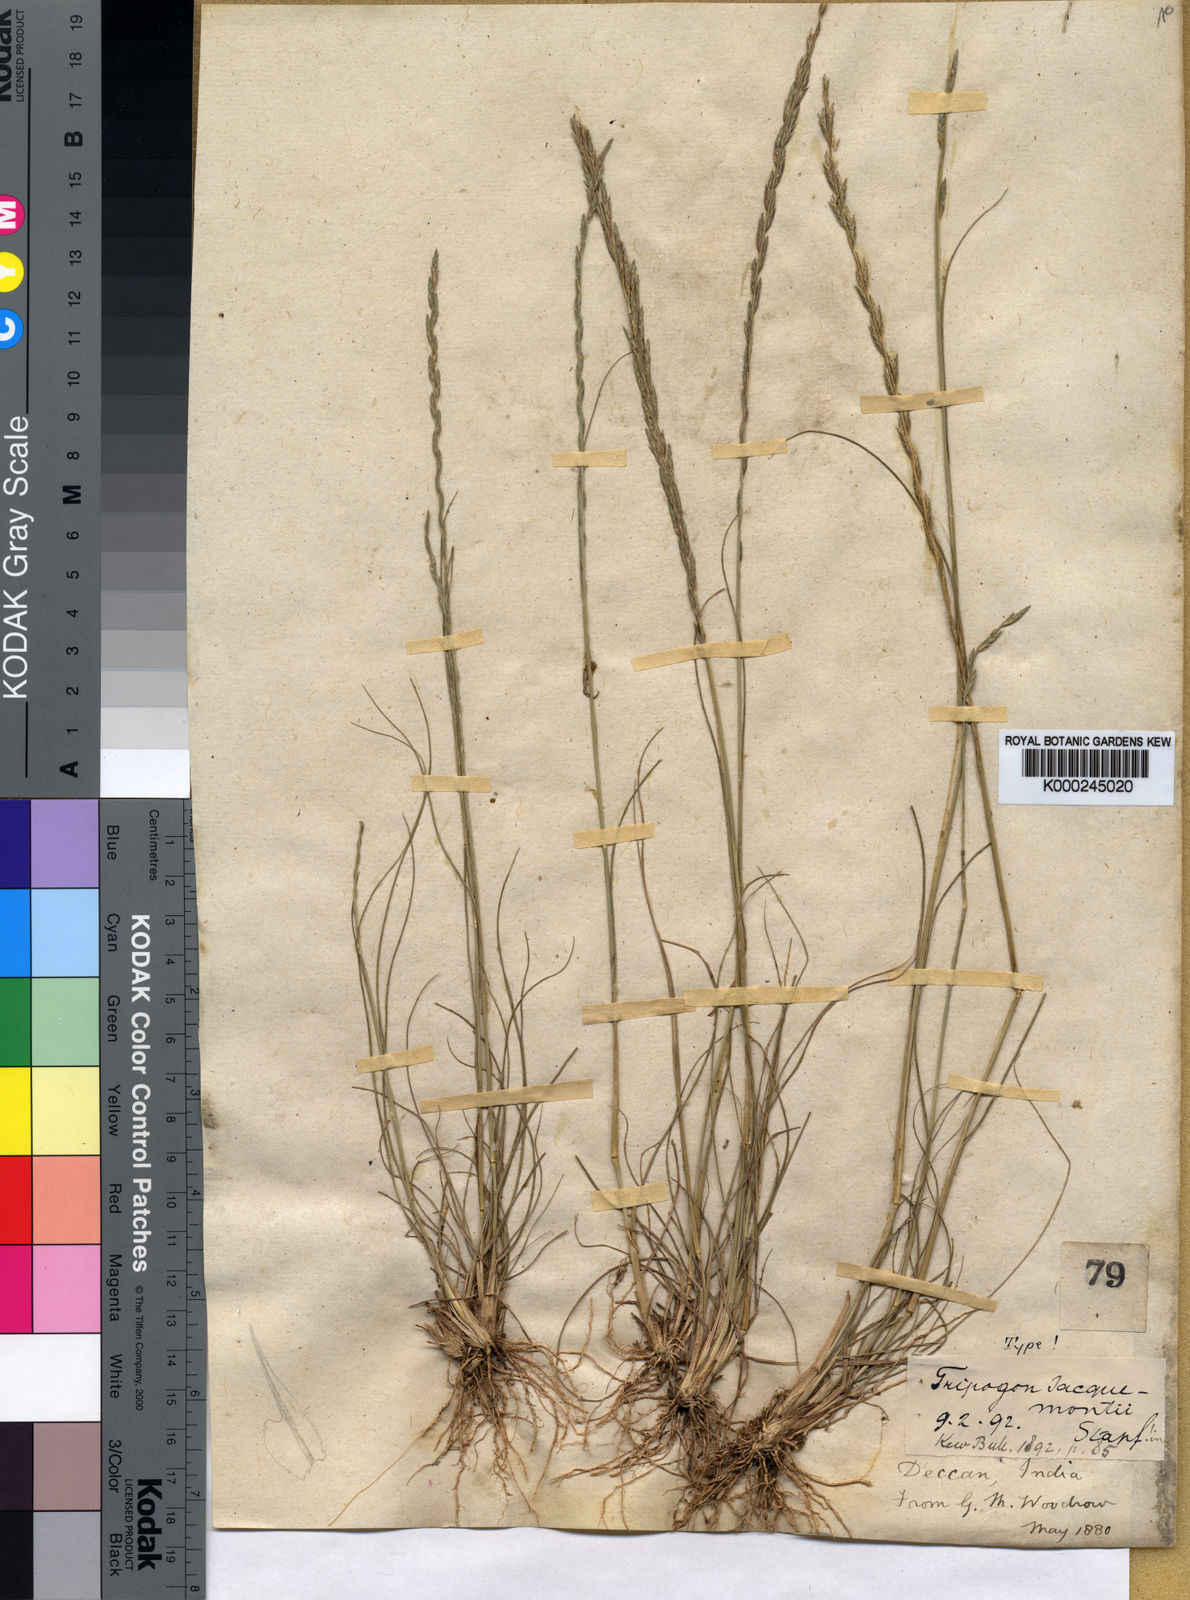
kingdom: Plantae
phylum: Tracheophyta
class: Liliopsida
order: Poales
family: Poaceae
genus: Tripogon
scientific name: Tripogon jacquemontii
